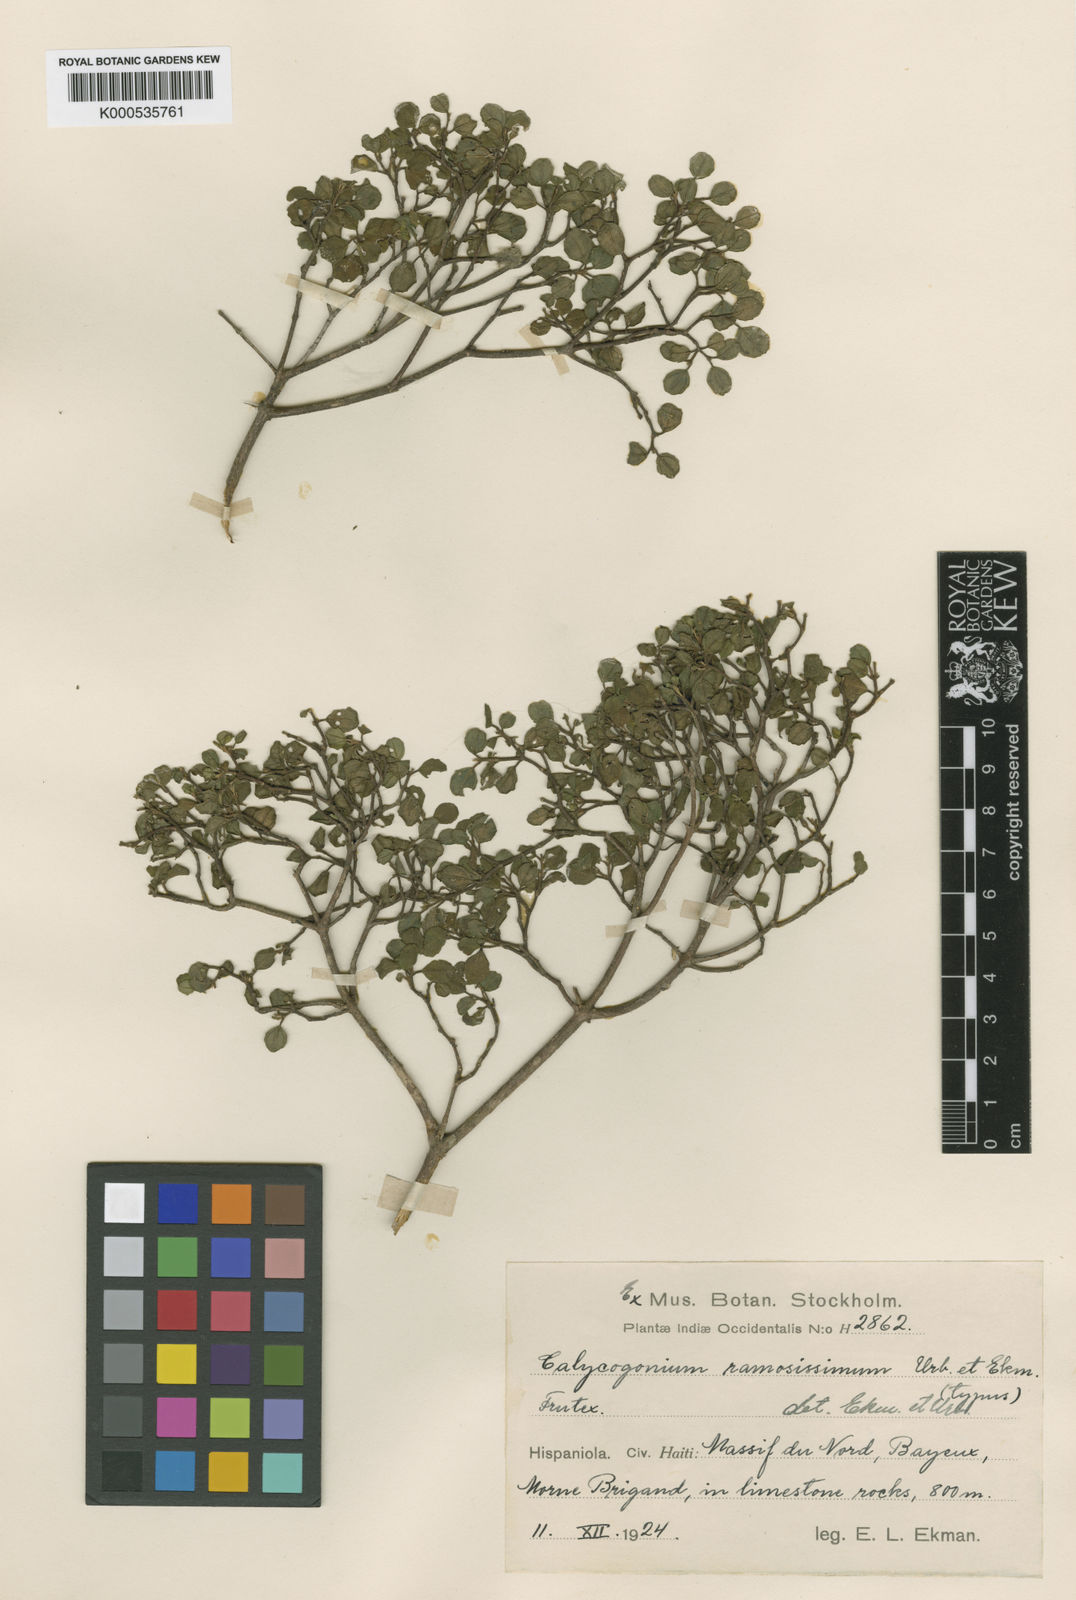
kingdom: Plantae
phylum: Tracheophyta
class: Magnoliopsida
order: Myrtales
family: Melastomataceae
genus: Miconia
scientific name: Miconia brevifolia
